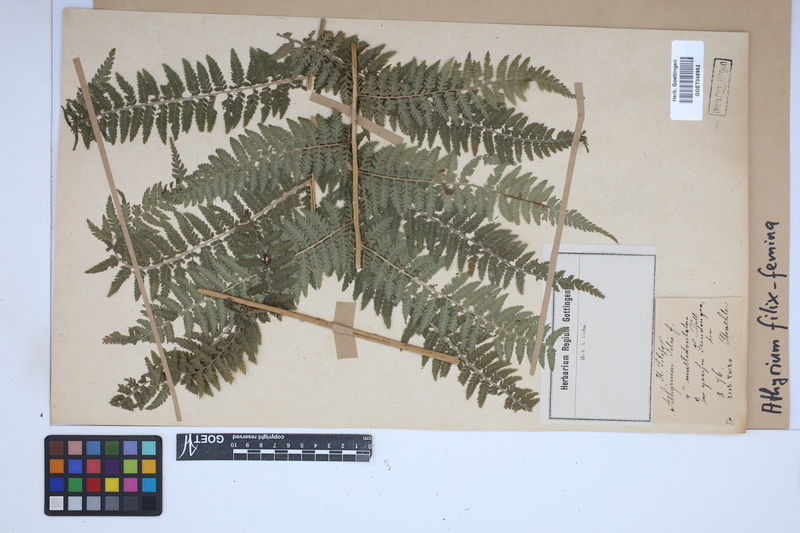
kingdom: Plantae
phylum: Tracheophyta
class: Polypodiopsida
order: Polypodiales
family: Athyriaceae
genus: Athyrium
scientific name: Athyrium filix-femina
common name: Lady fern
